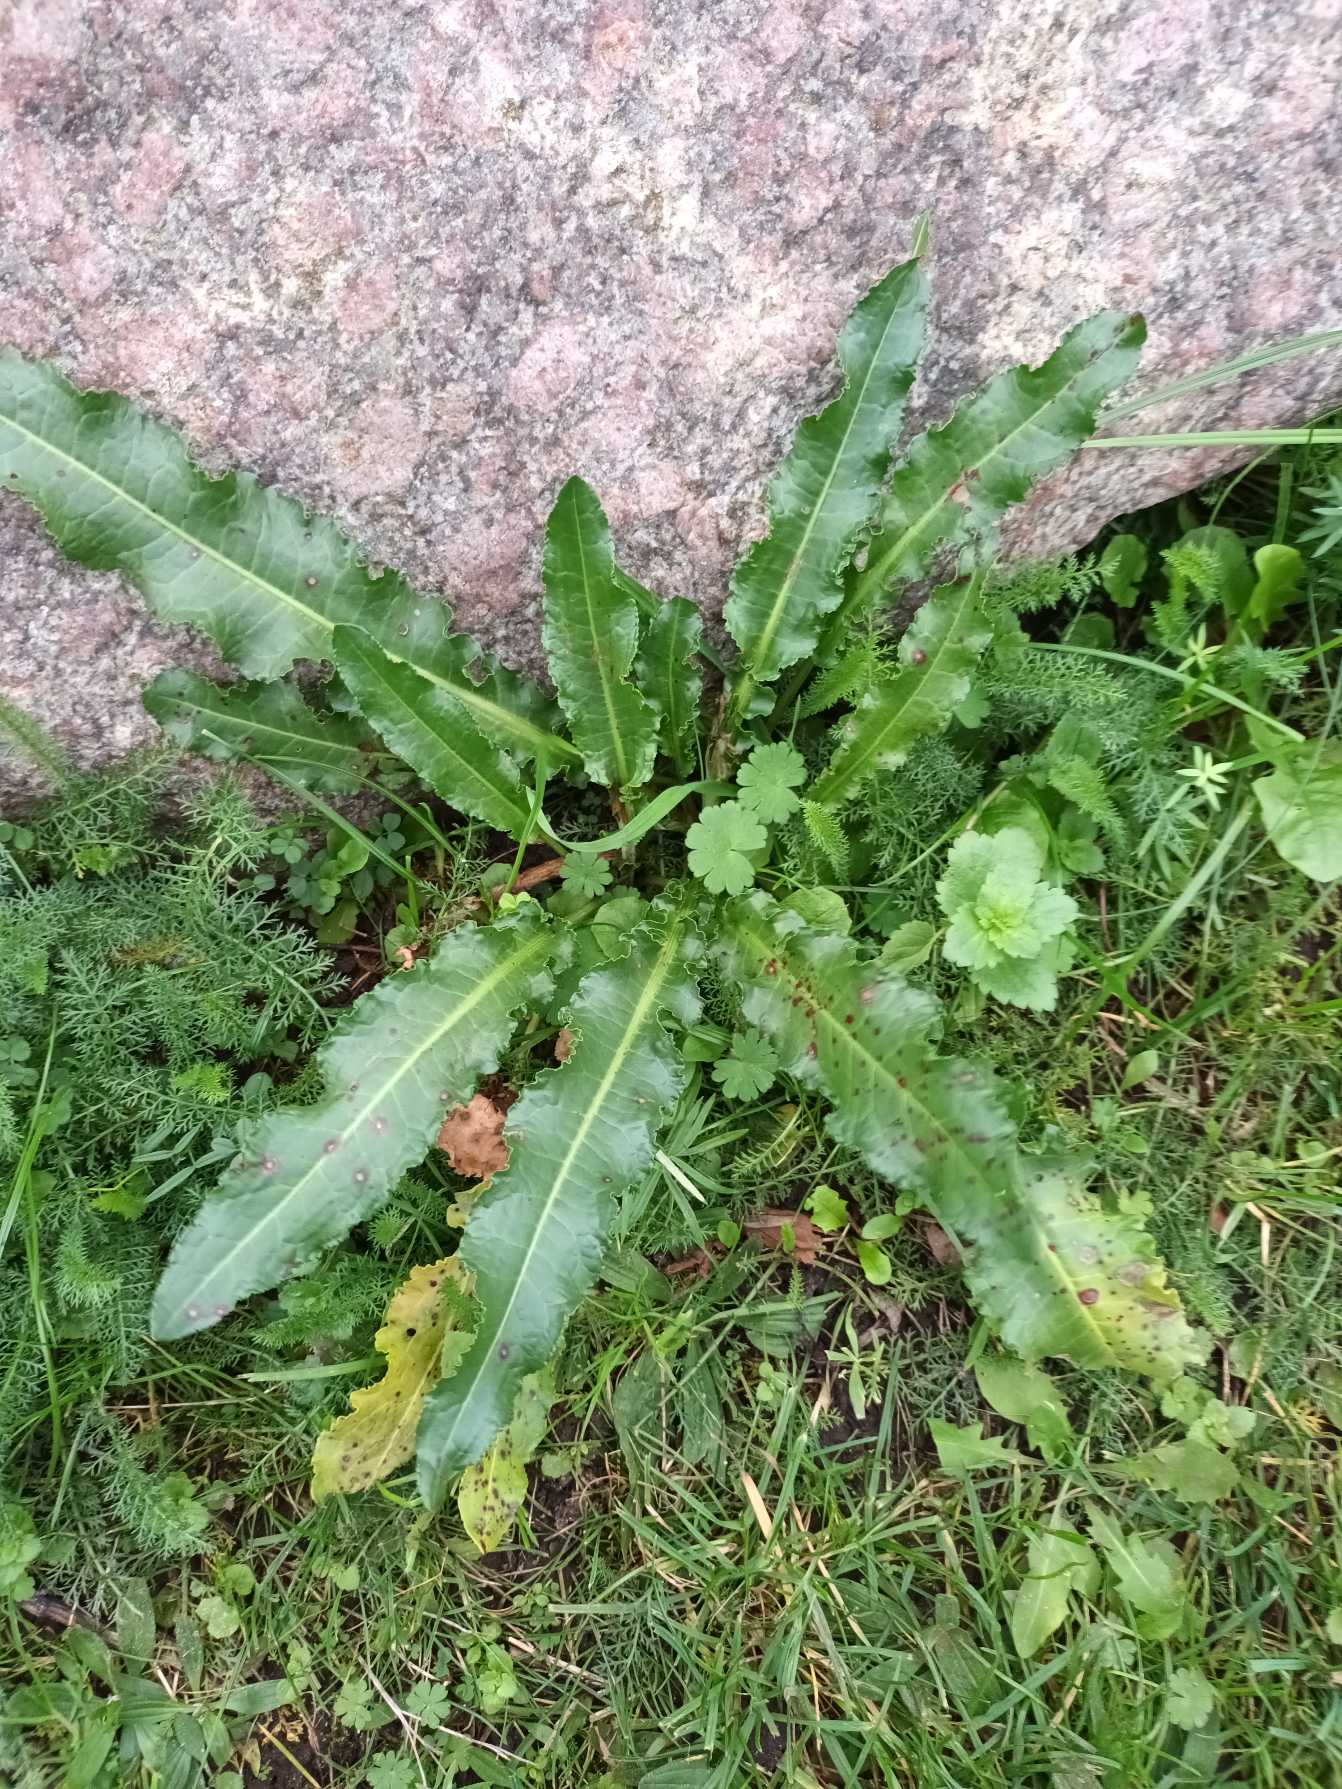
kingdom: Plantae
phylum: Tracheophyta
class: Magnoliopsida
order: Caryophyllales
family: Polygonaceae
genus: Rumex
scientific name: Rumex crispus
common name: Kruset skræppe
